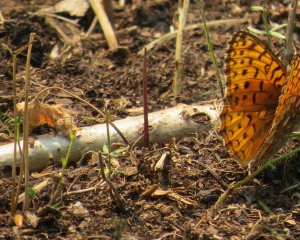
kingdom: Animalia
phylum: Arthropoda
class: Insecta
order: Lepidoptera
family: Nymphalidae
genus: Speyeria
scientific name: Speyeria atlantis
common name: Northwestern Fritillary
